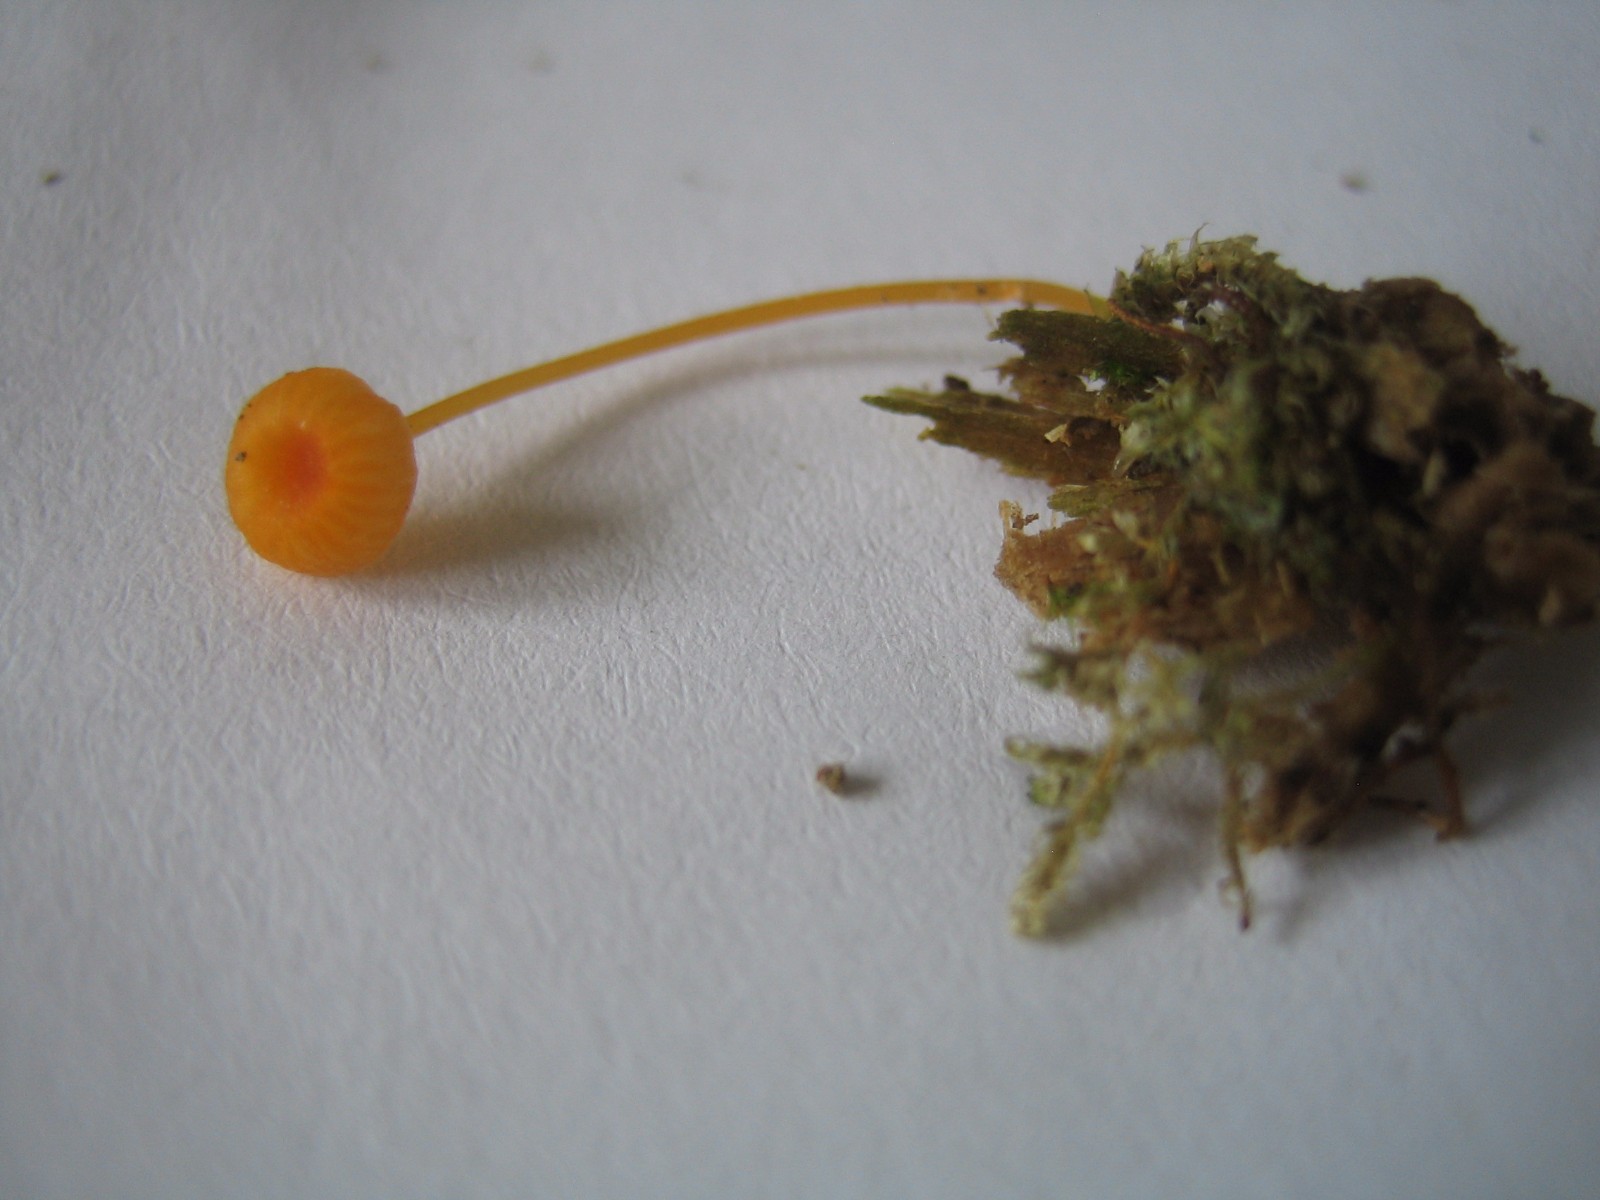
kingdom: Fungi
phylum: Basidiomycota
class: Agaricomycetes
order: Hymenochaetales
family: Rickenellaceae
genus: Rickenella
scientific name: Rickenella fibula
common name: orange mosnavlehat
